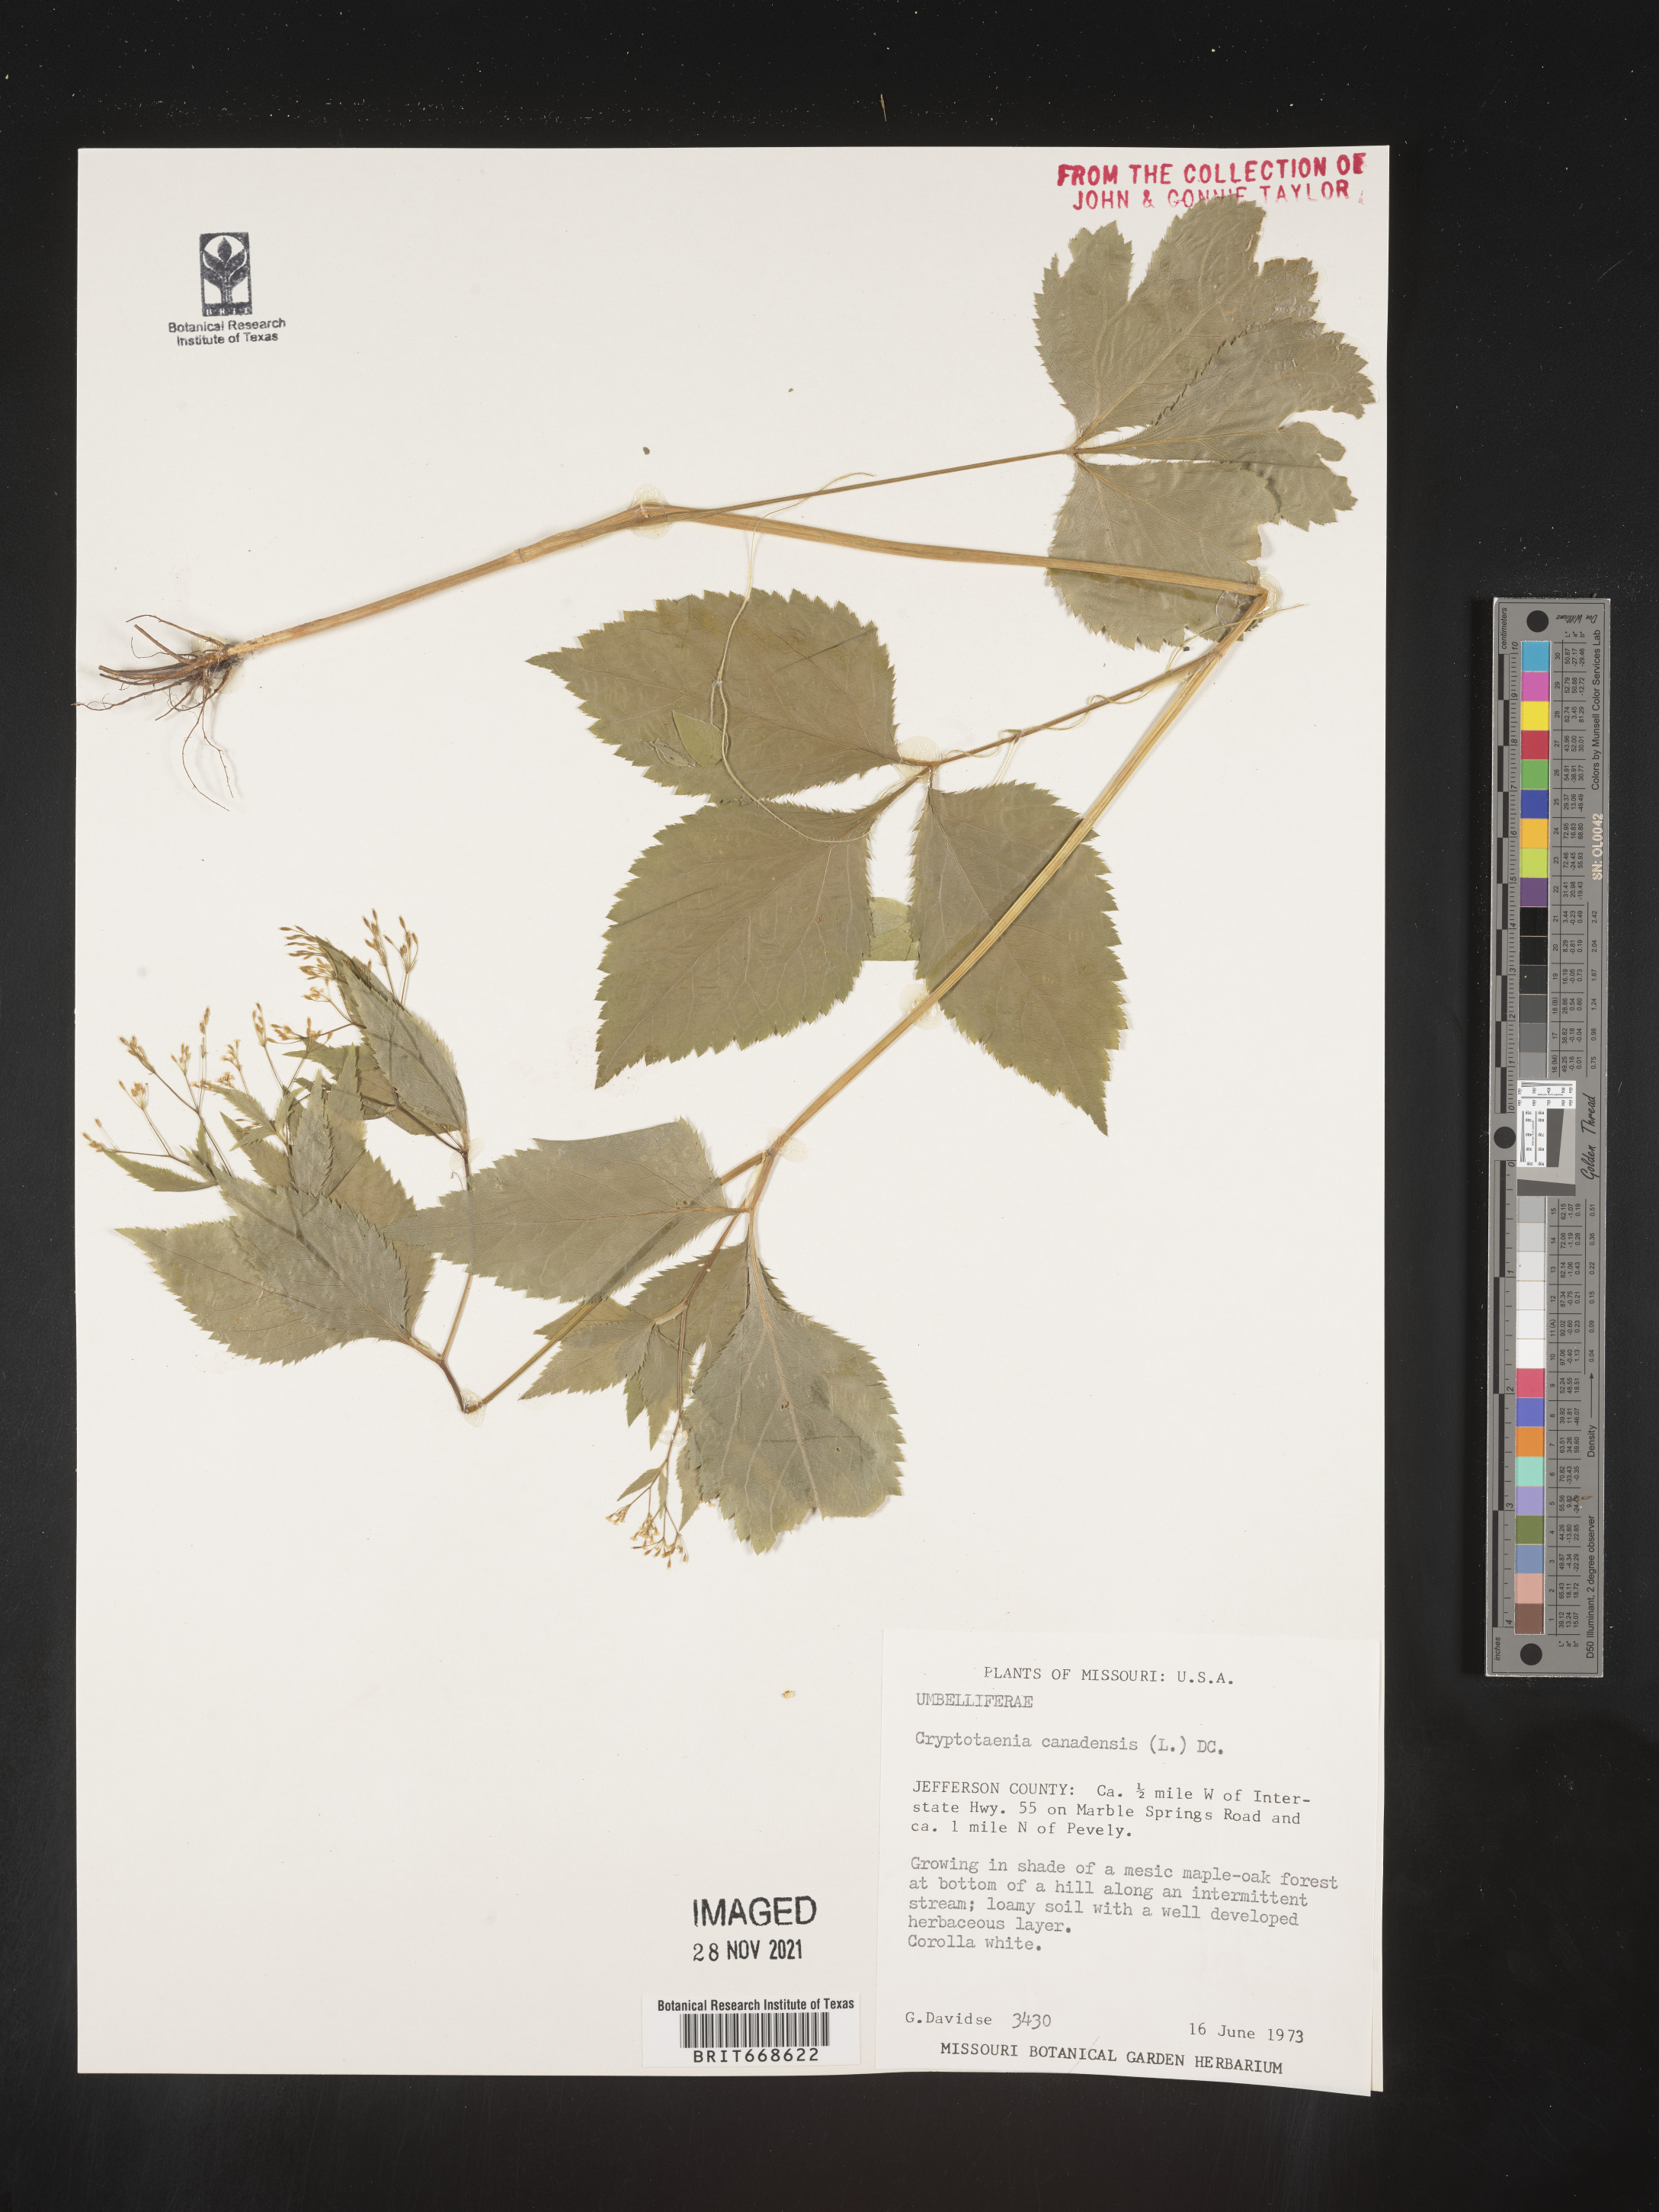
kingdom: Plantae
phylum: Tracheophyta
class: Magnoliopsida
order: Apiales
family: Apiaceae
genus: Cryptotaenia
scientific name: Cryptotaenia canadensis
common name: Honewort
